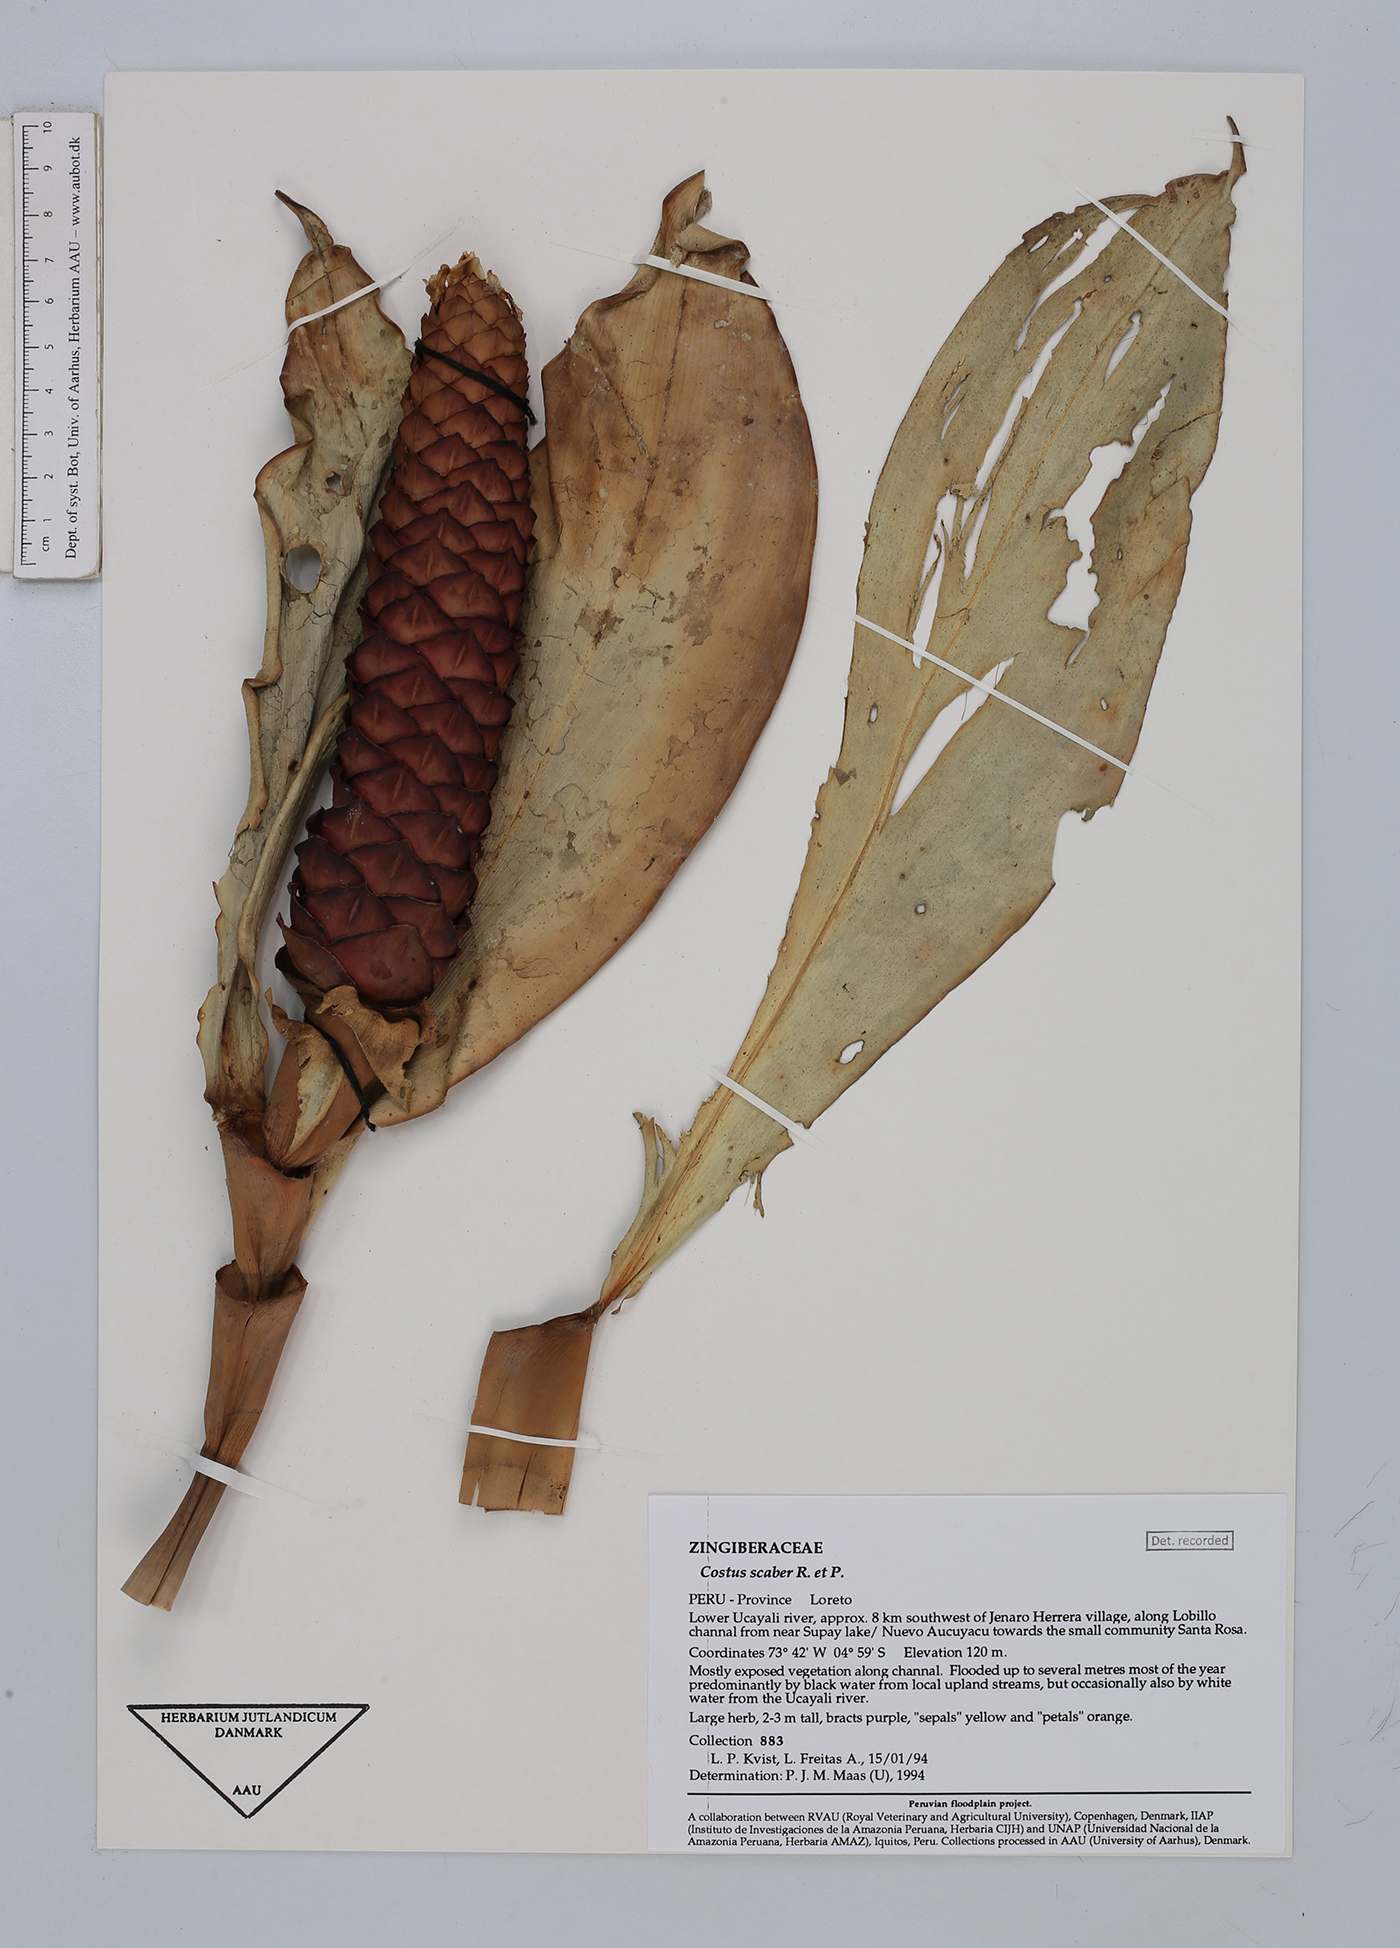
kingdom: Plantae
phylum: Tracheophyta
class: Liliopsida
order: Zingiberales
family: Costaceae
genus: Costus
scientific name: Costus scaber
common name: Spiral head ginger
